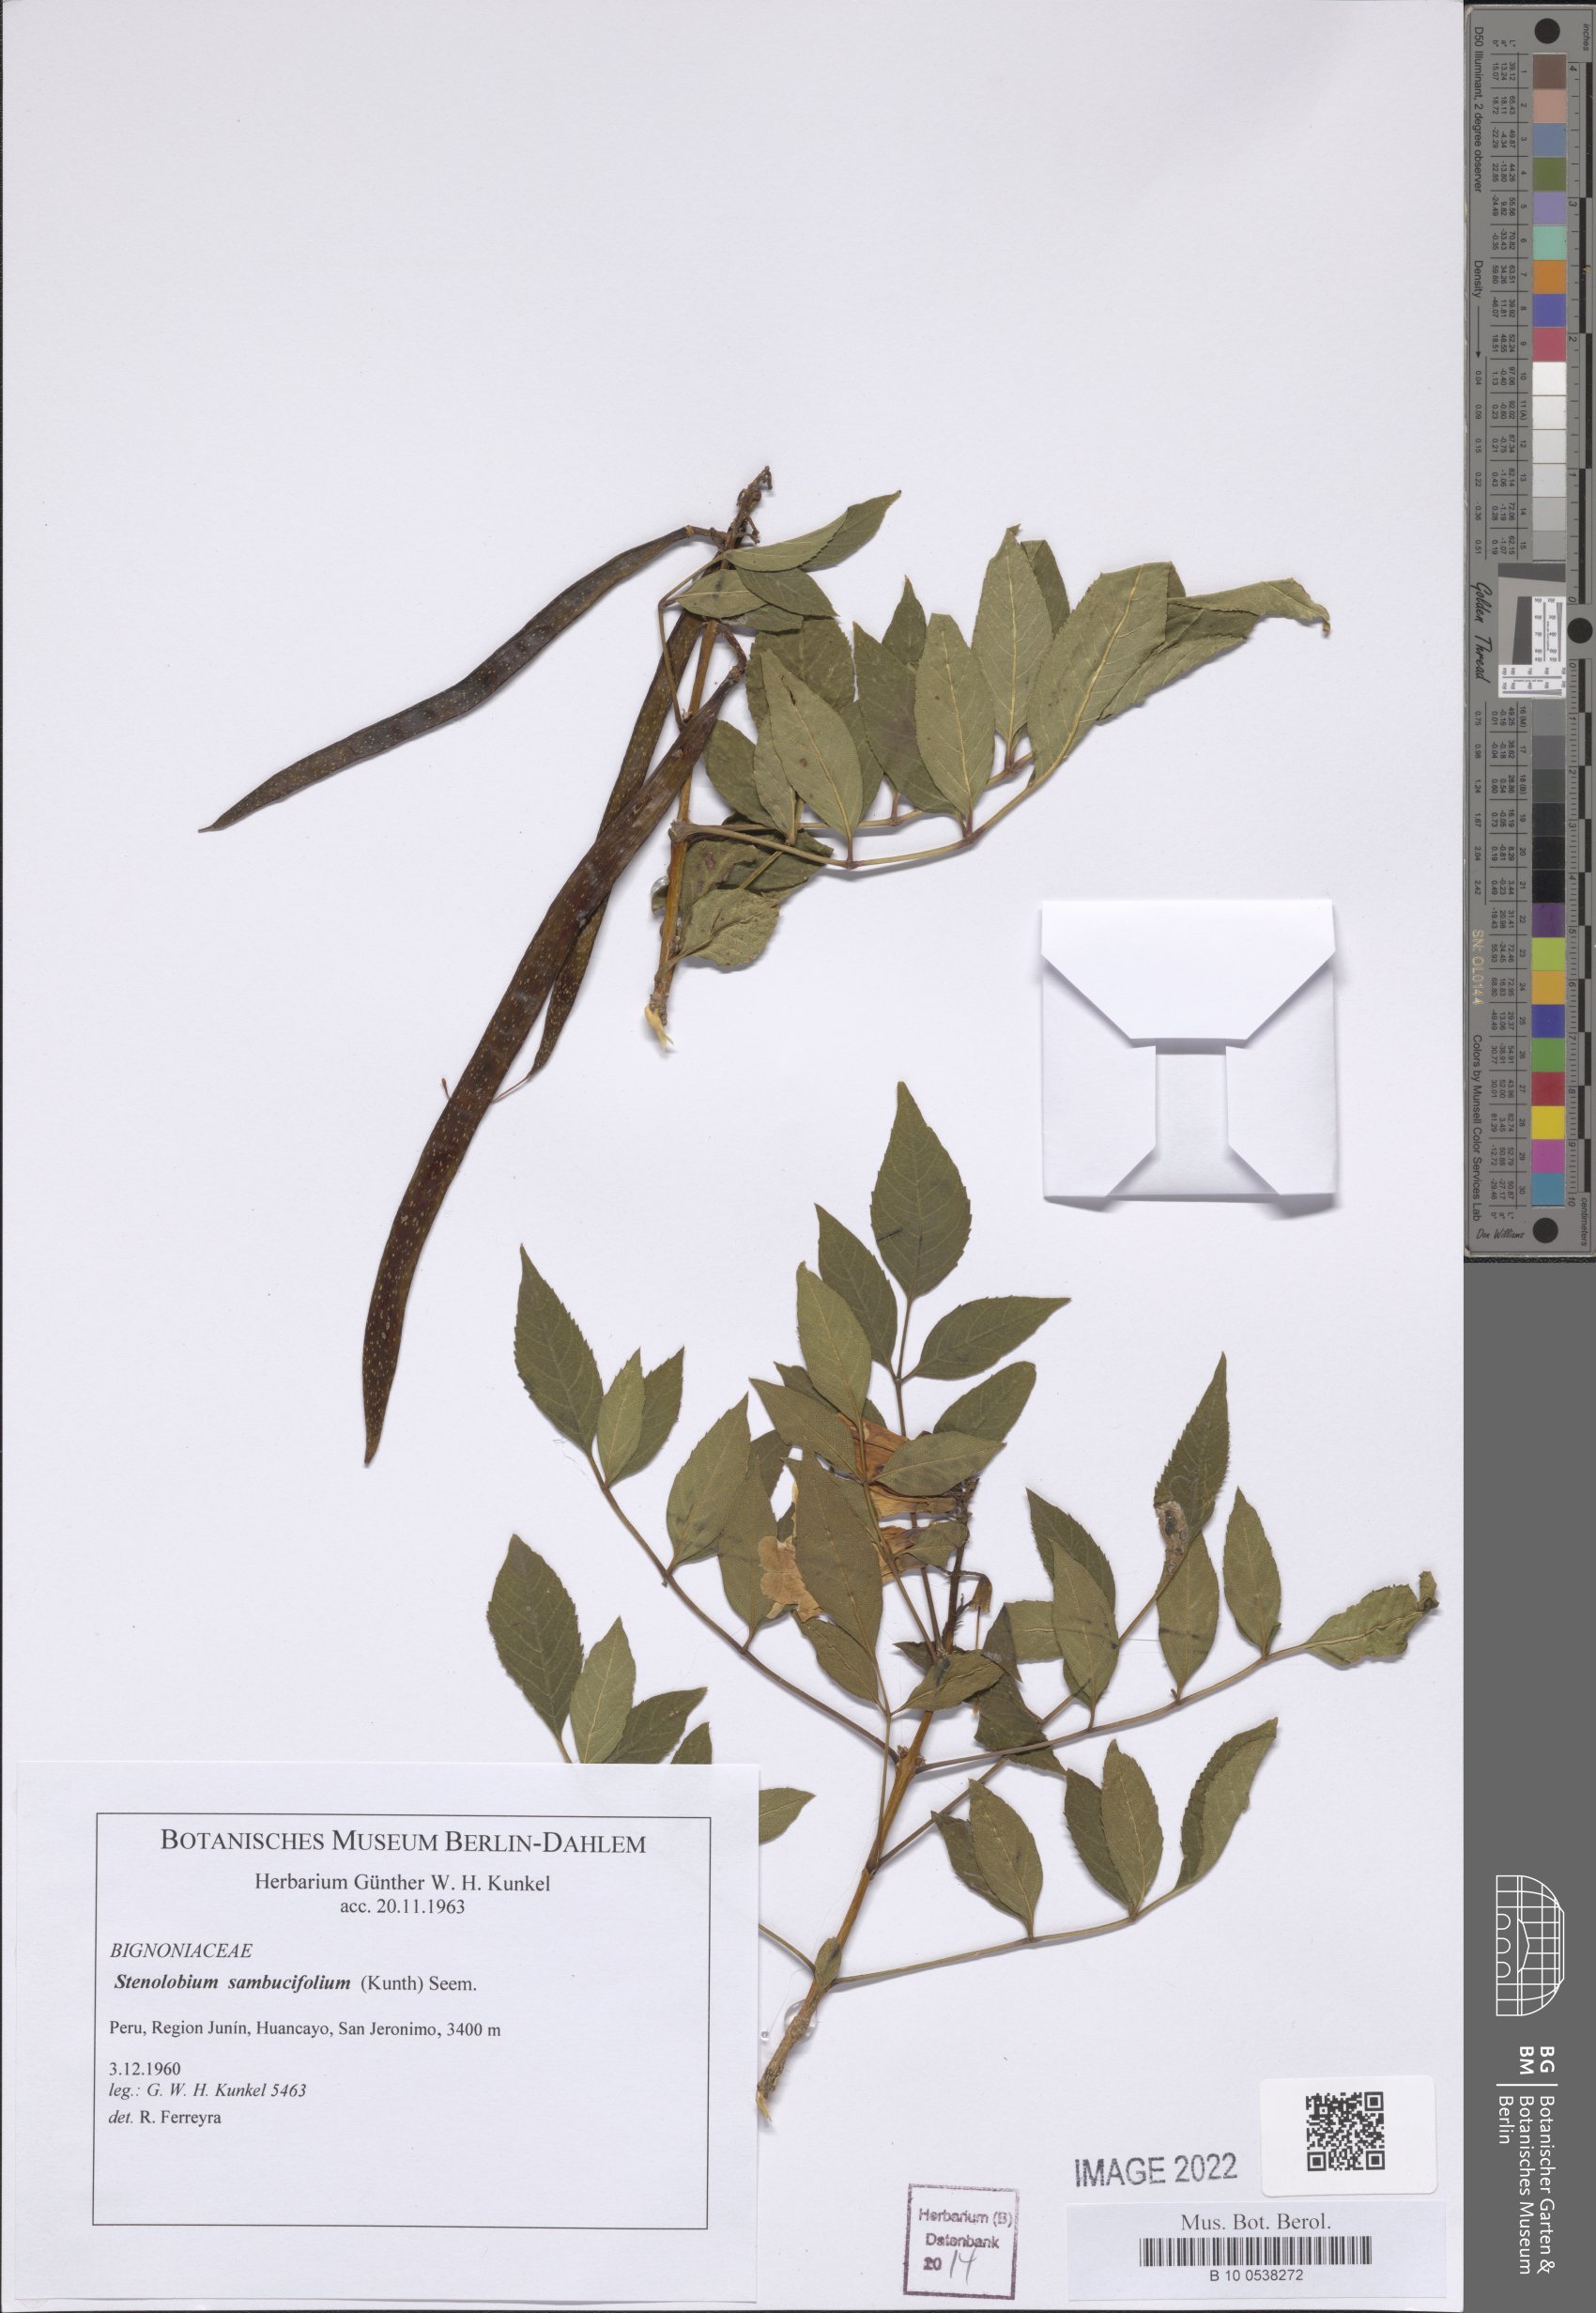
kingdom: Plantae
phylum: Tracheophyta
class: Magnoliopsida
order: Lamiales
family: Bignoniaceae
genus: Tecoma
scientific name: Tecoma stans
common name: Yellow trumpetbush
